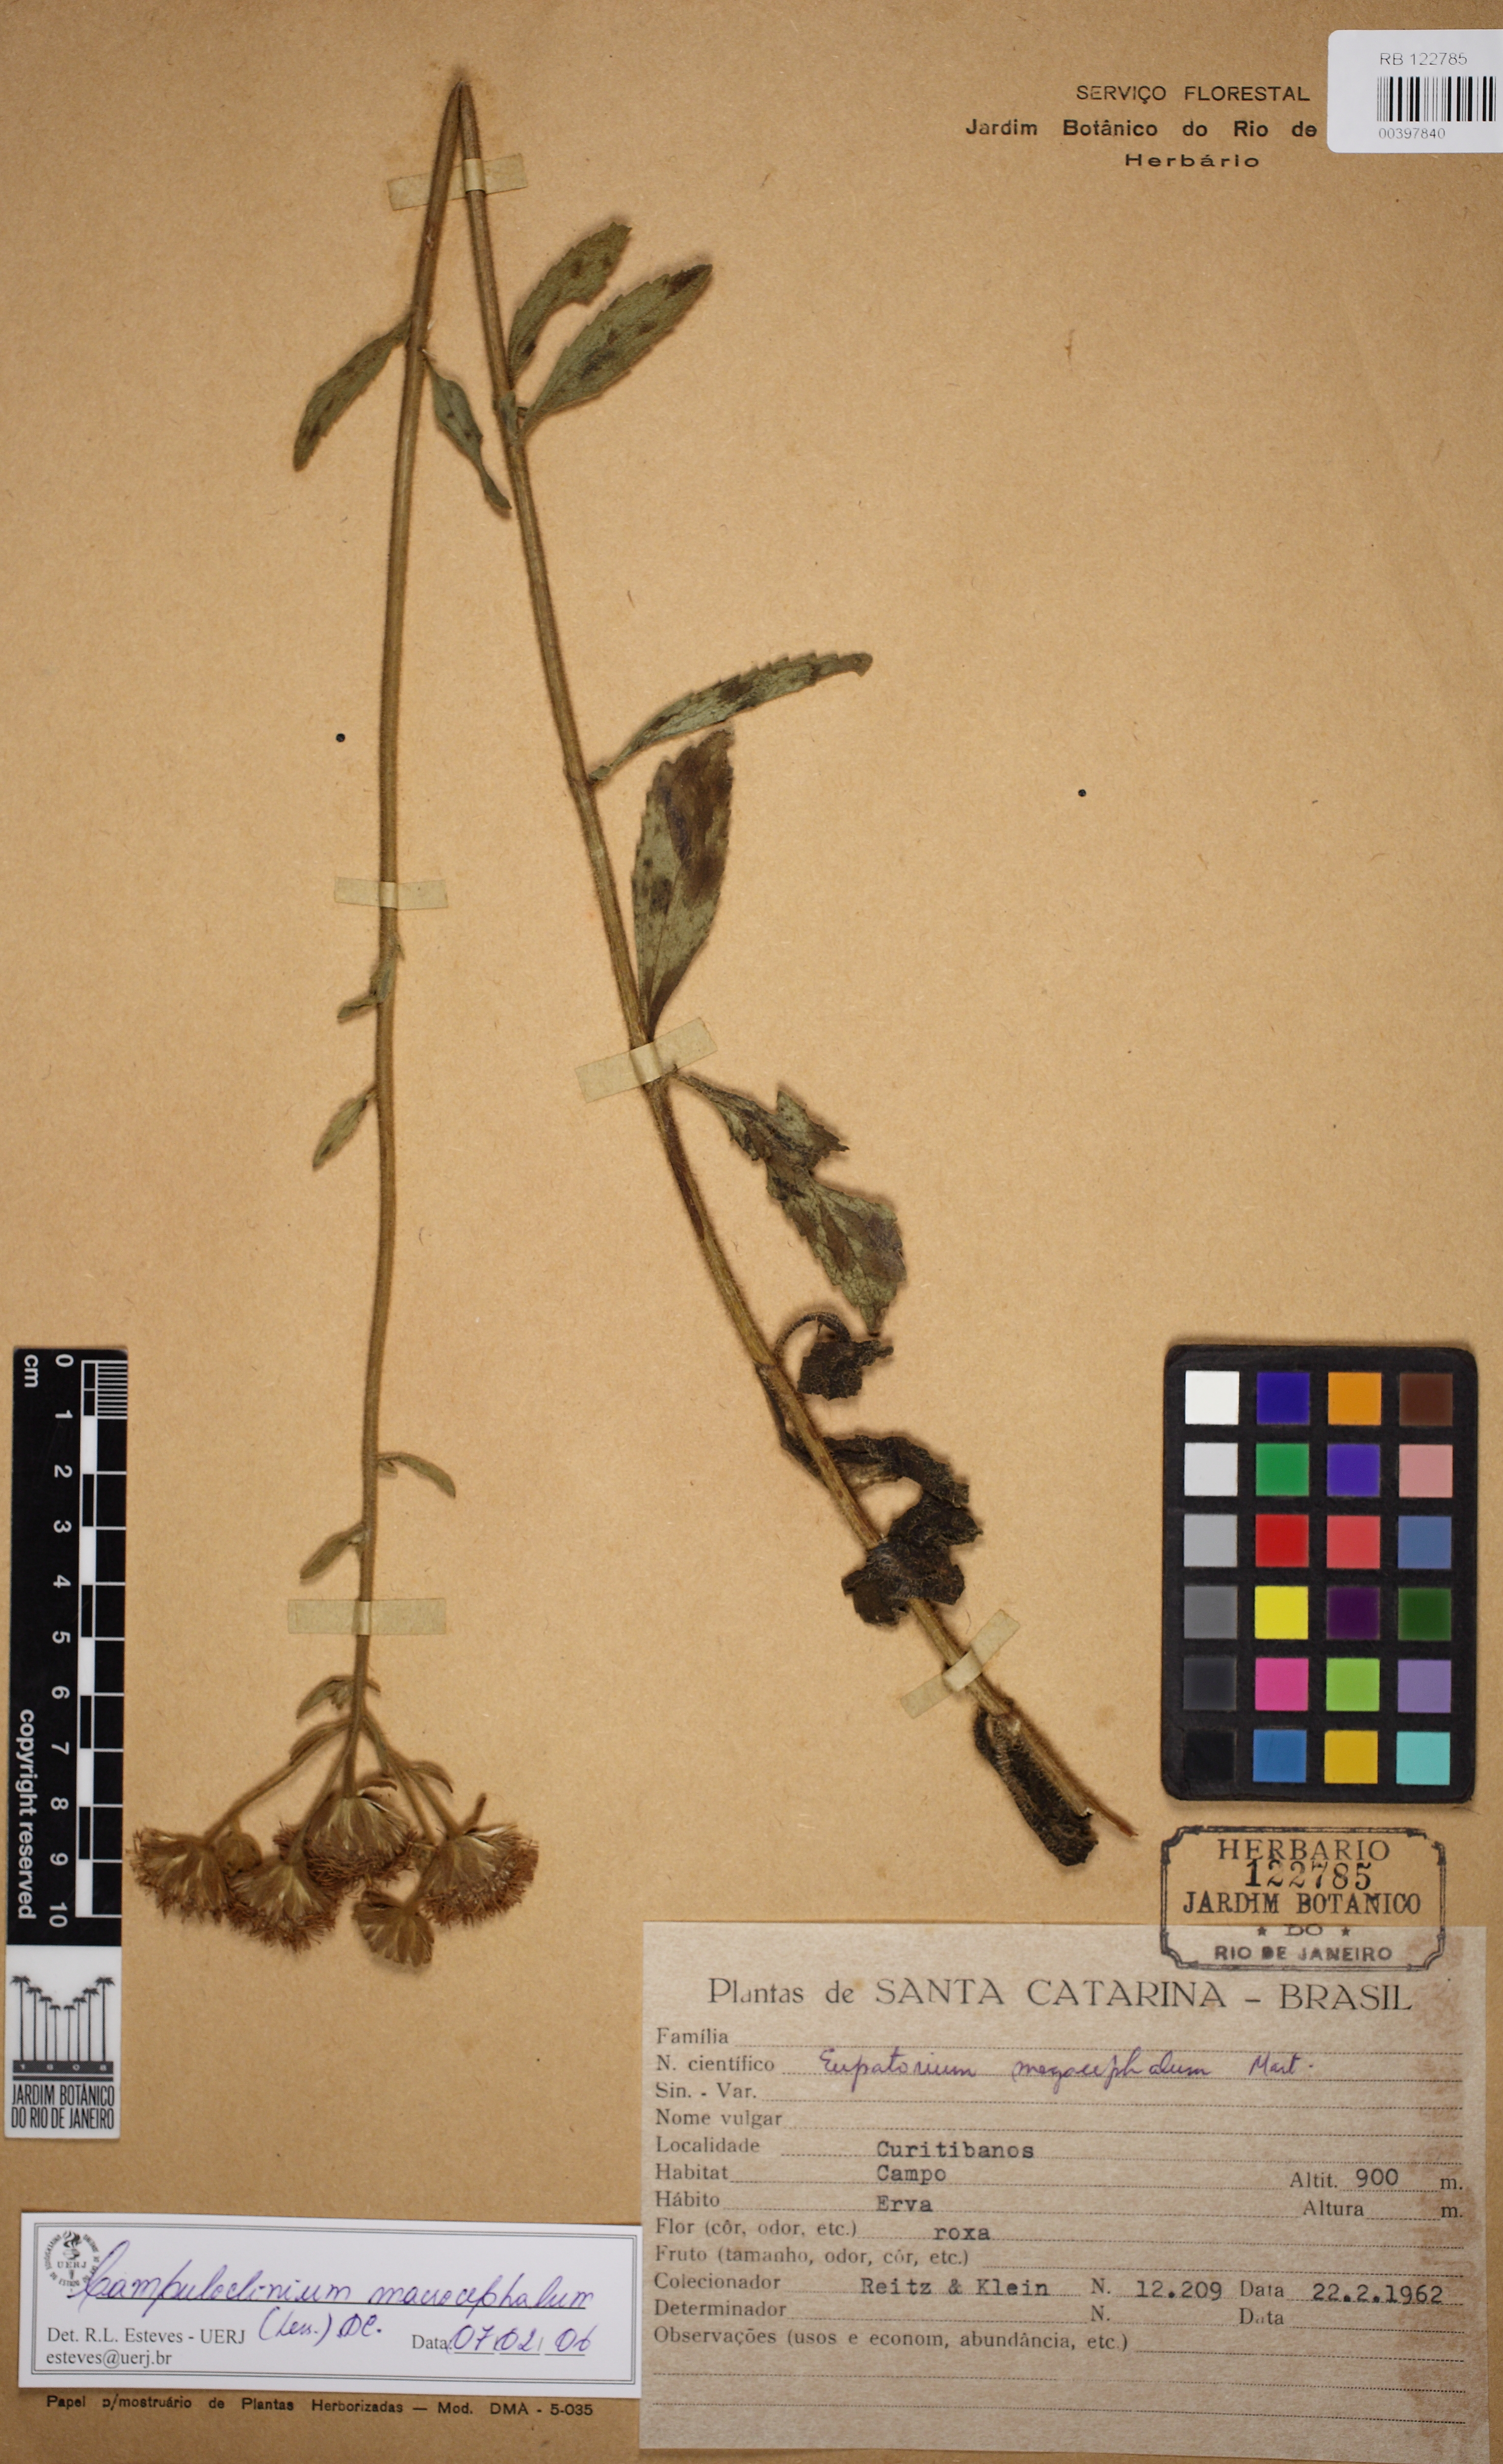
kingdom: Plantae
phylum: Tracheophyta
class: Magnoliopsida
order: Asterales
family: Asteraceae
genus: Campuloclinium
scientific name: Campuloclinium macrocephalum
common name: Pompomweed
